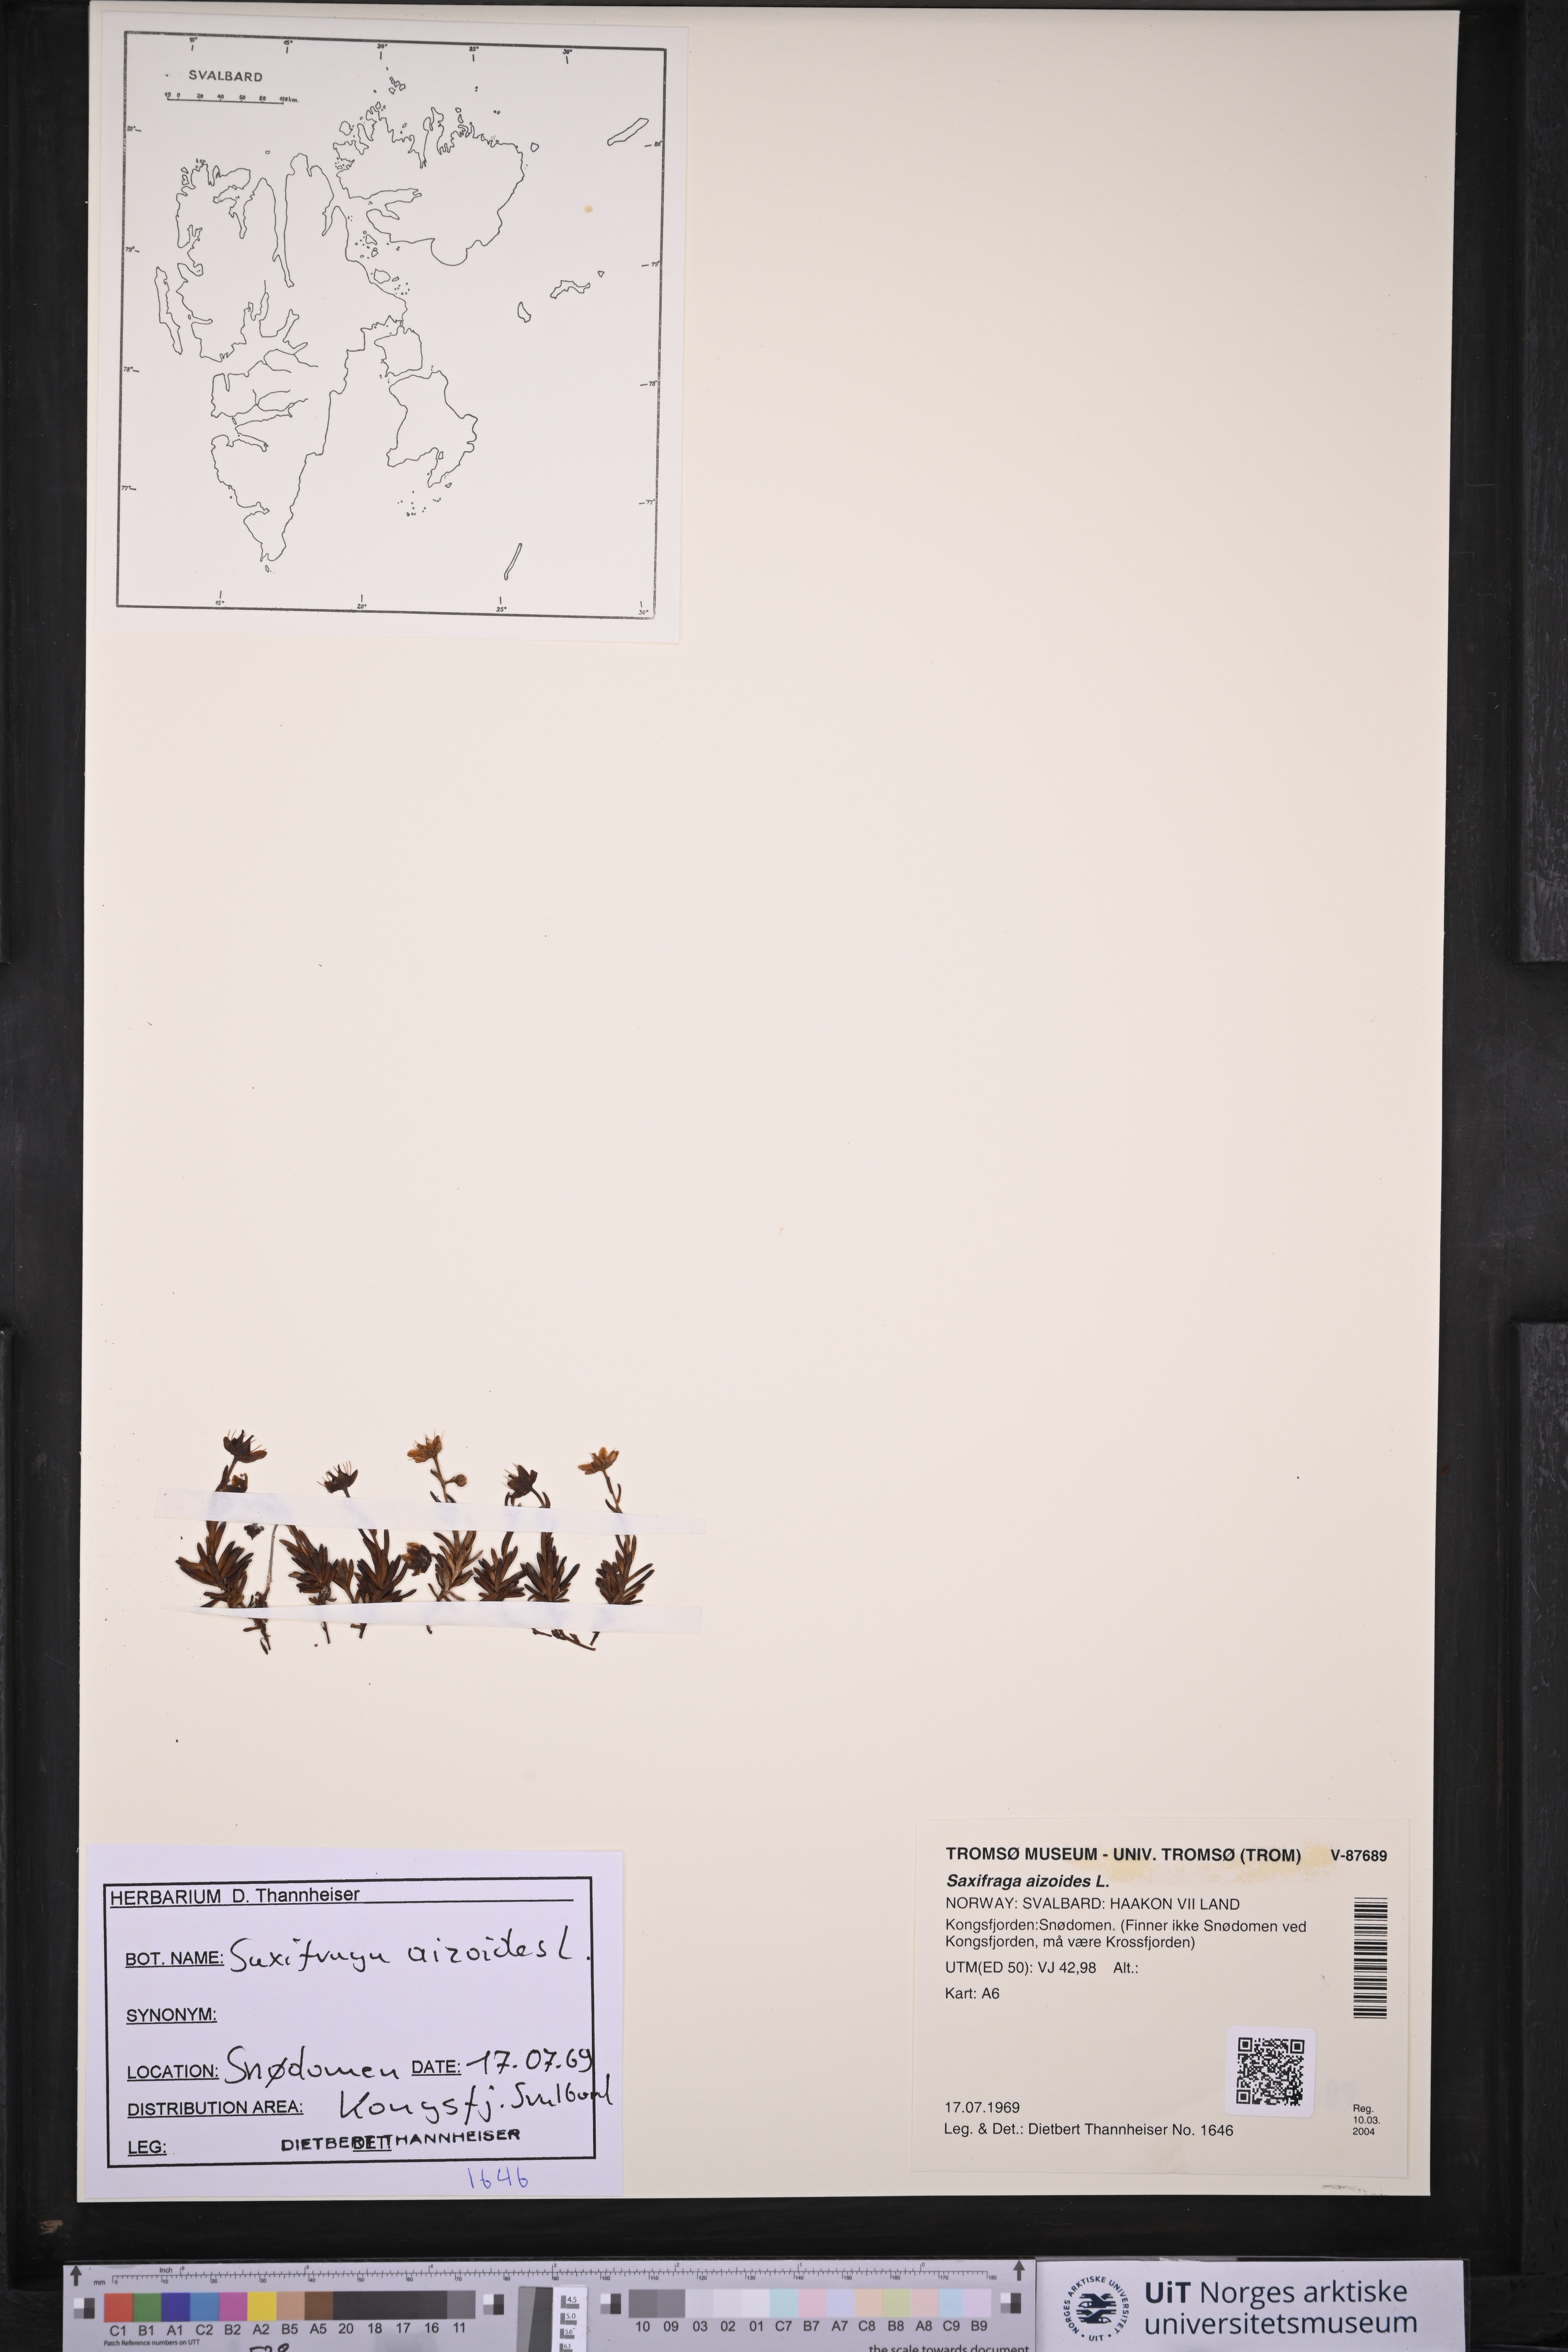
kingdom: Plantae
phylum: Tracheophyta
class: Magnoliopsida
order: Saxifragales
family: Saxifragaceae
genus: Saxifraga
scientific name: Saxifraga aizoides
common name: Yellow mountain saxifrage
